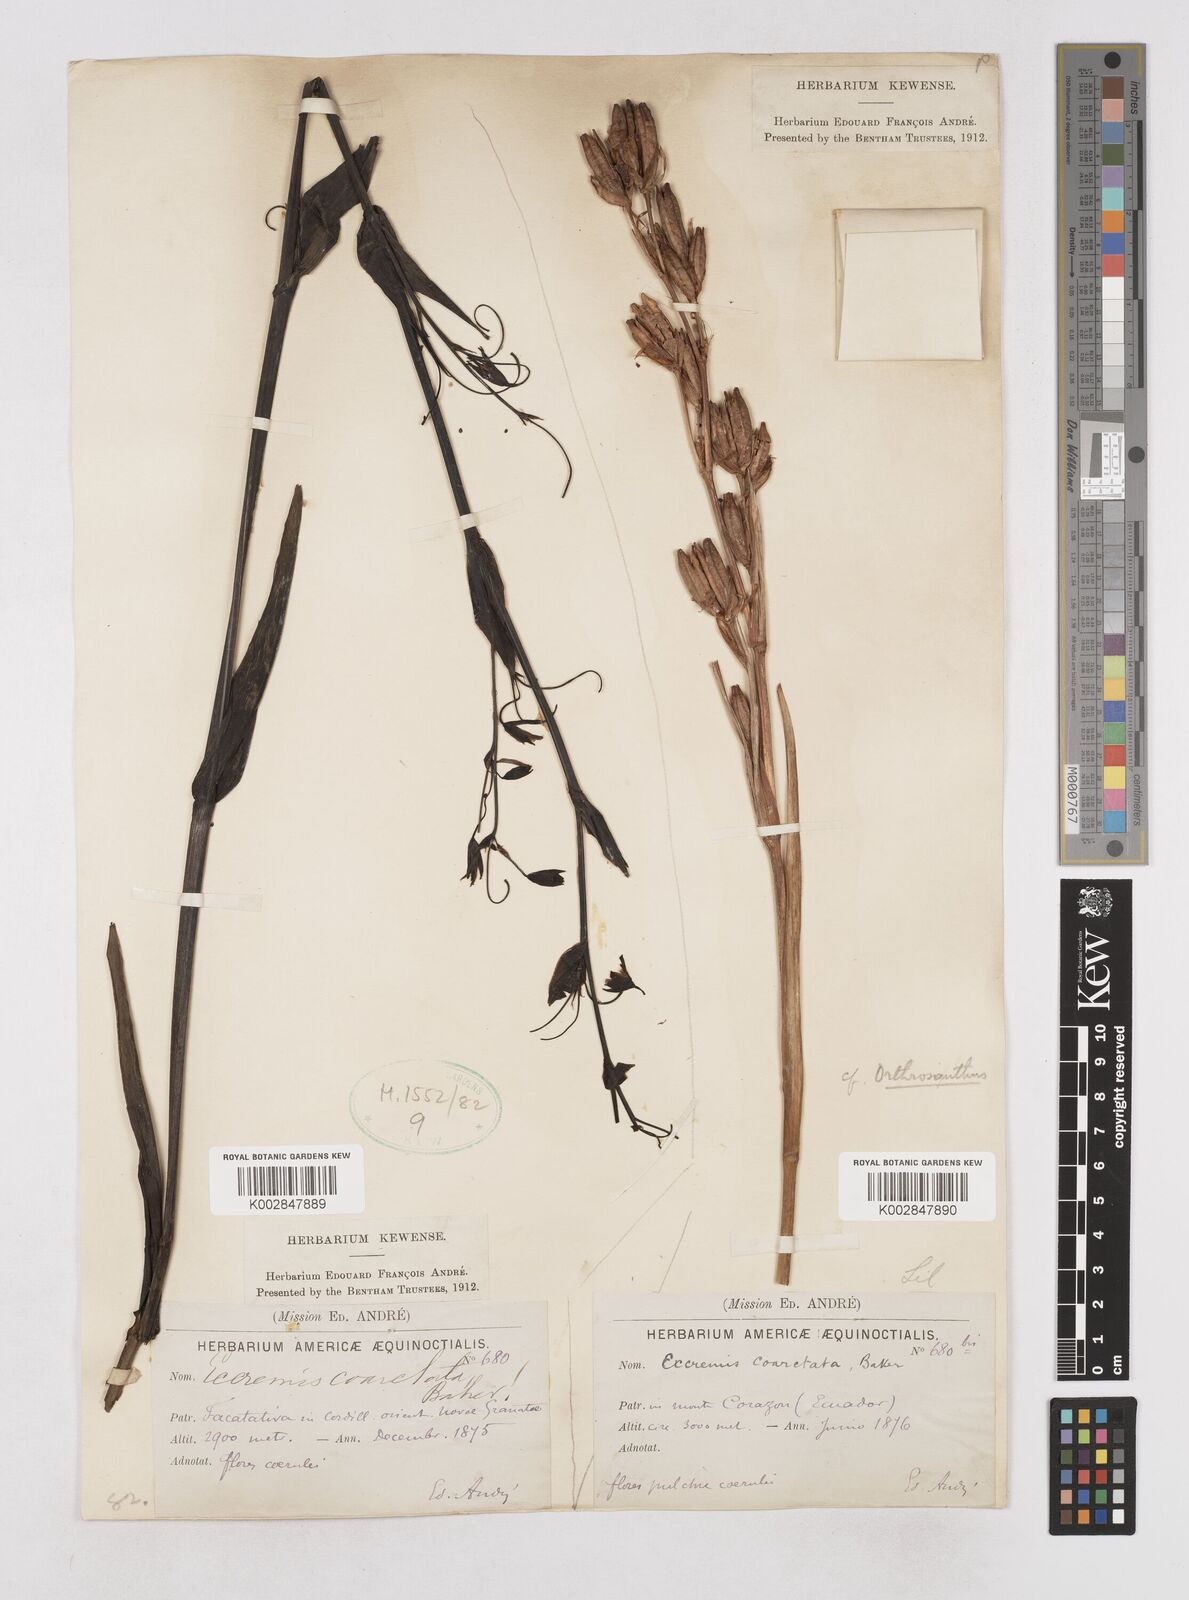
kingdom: Plantae
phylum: Tracheophyta
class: Liliopsida
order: Asparagales
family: Asphodelaceae
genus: Excremis
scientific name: Excremis coarctata
